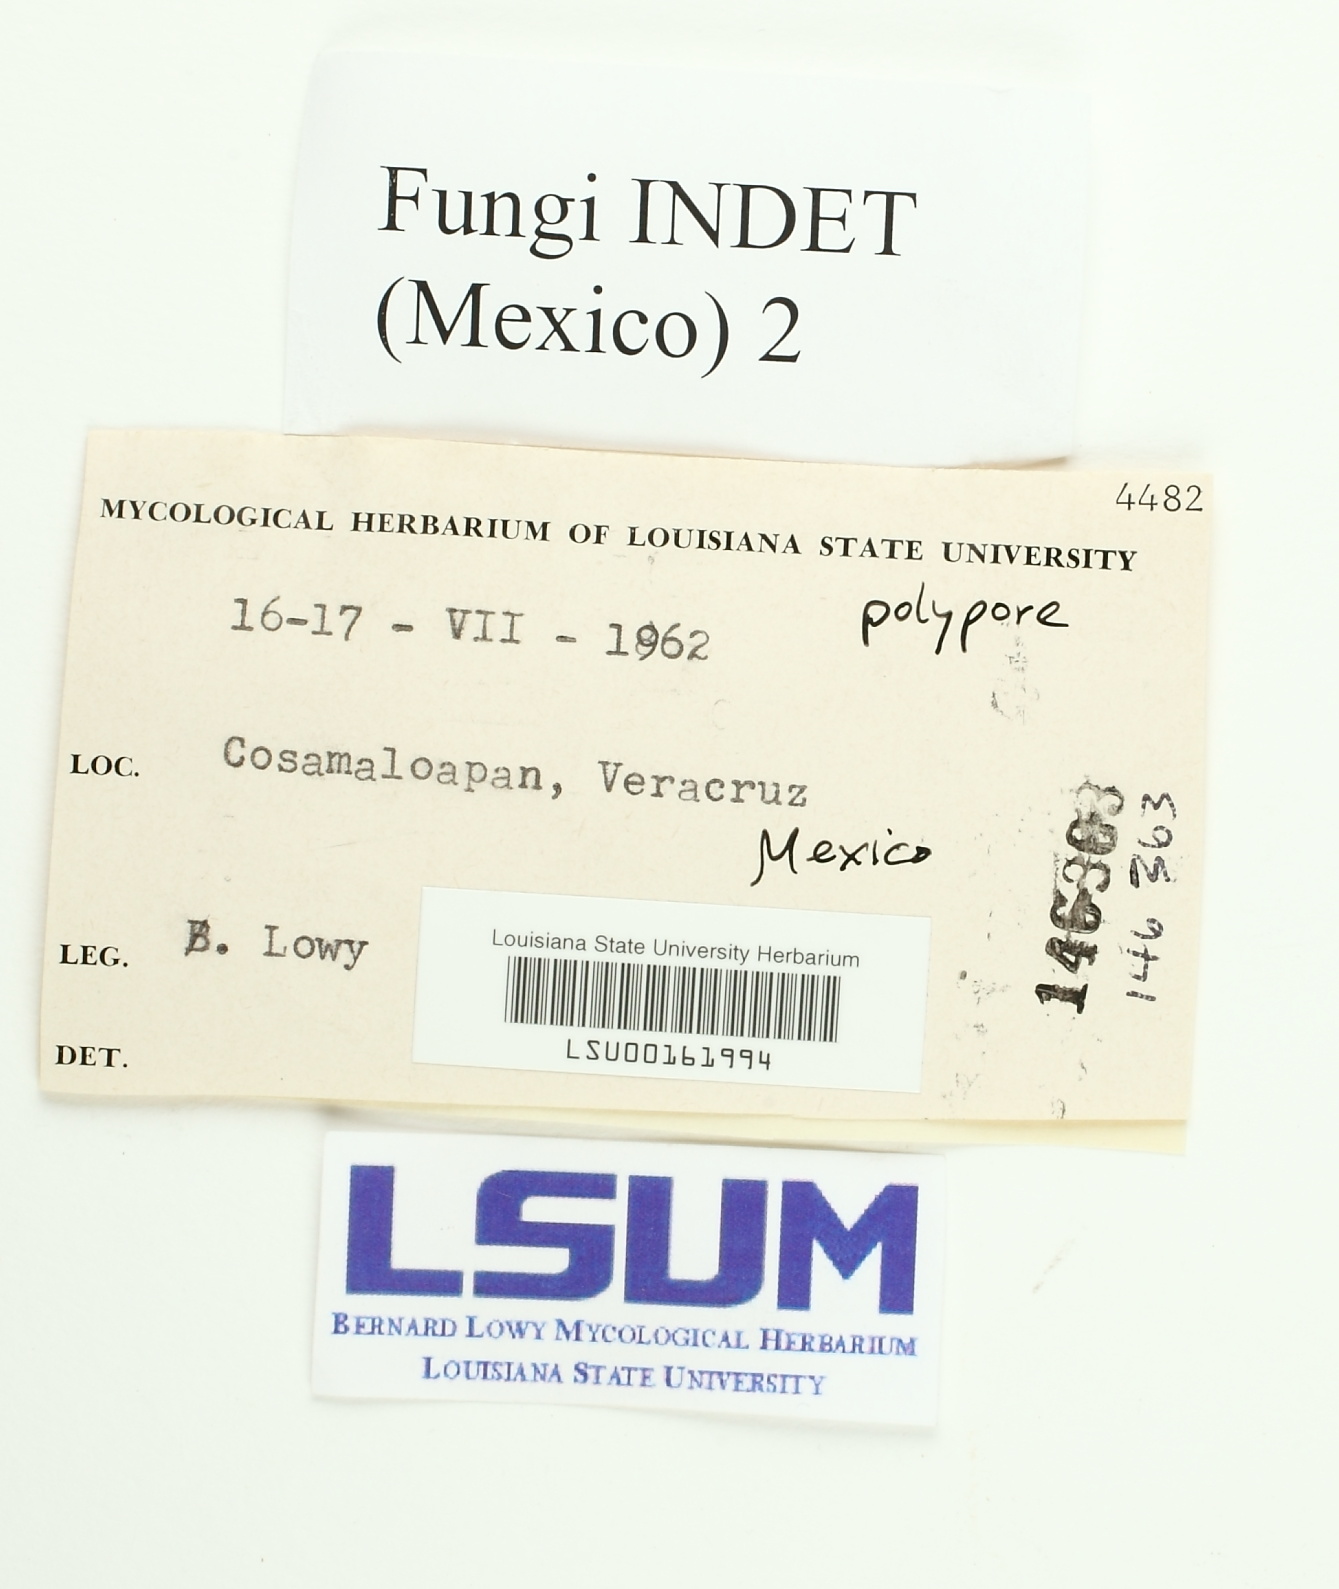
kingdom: Fungi
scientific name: Fungi
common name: Fungi
